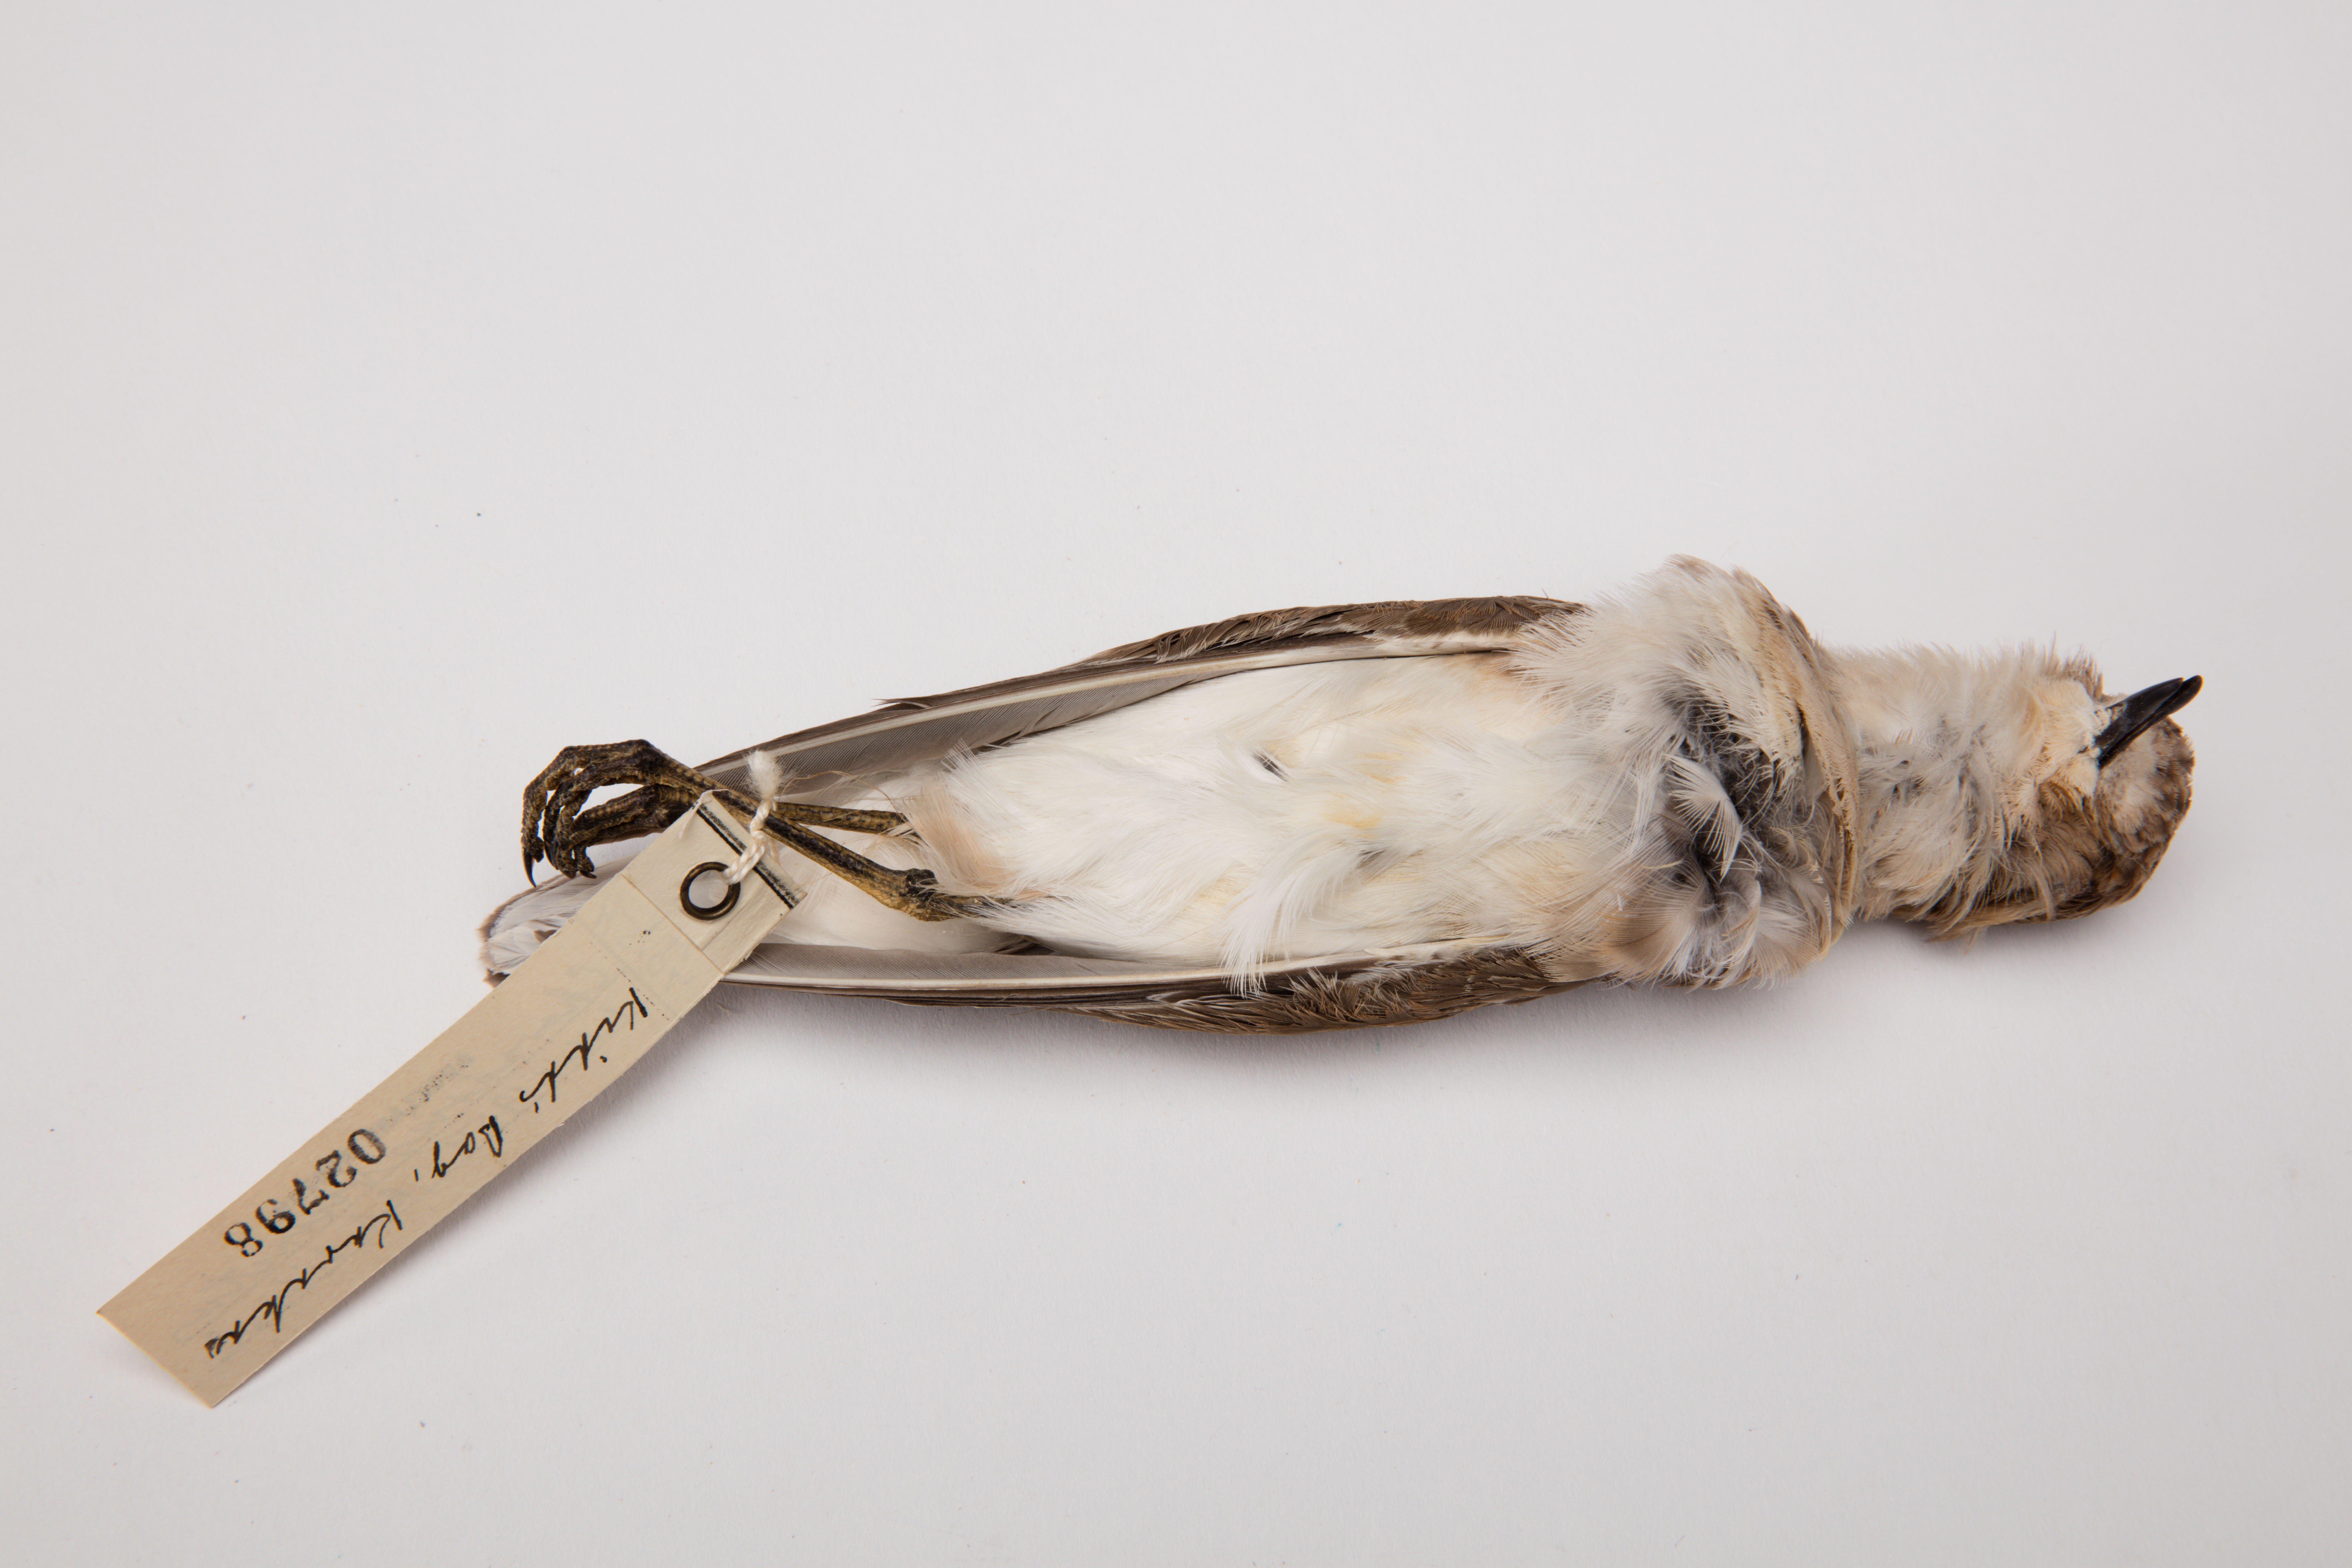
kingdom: Animalia
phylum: Chordata
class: Aves
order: Charadriiformes
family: Charadriidae
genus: Charadrius
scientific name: Charadrius bicinctus
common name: Double-banded plover
